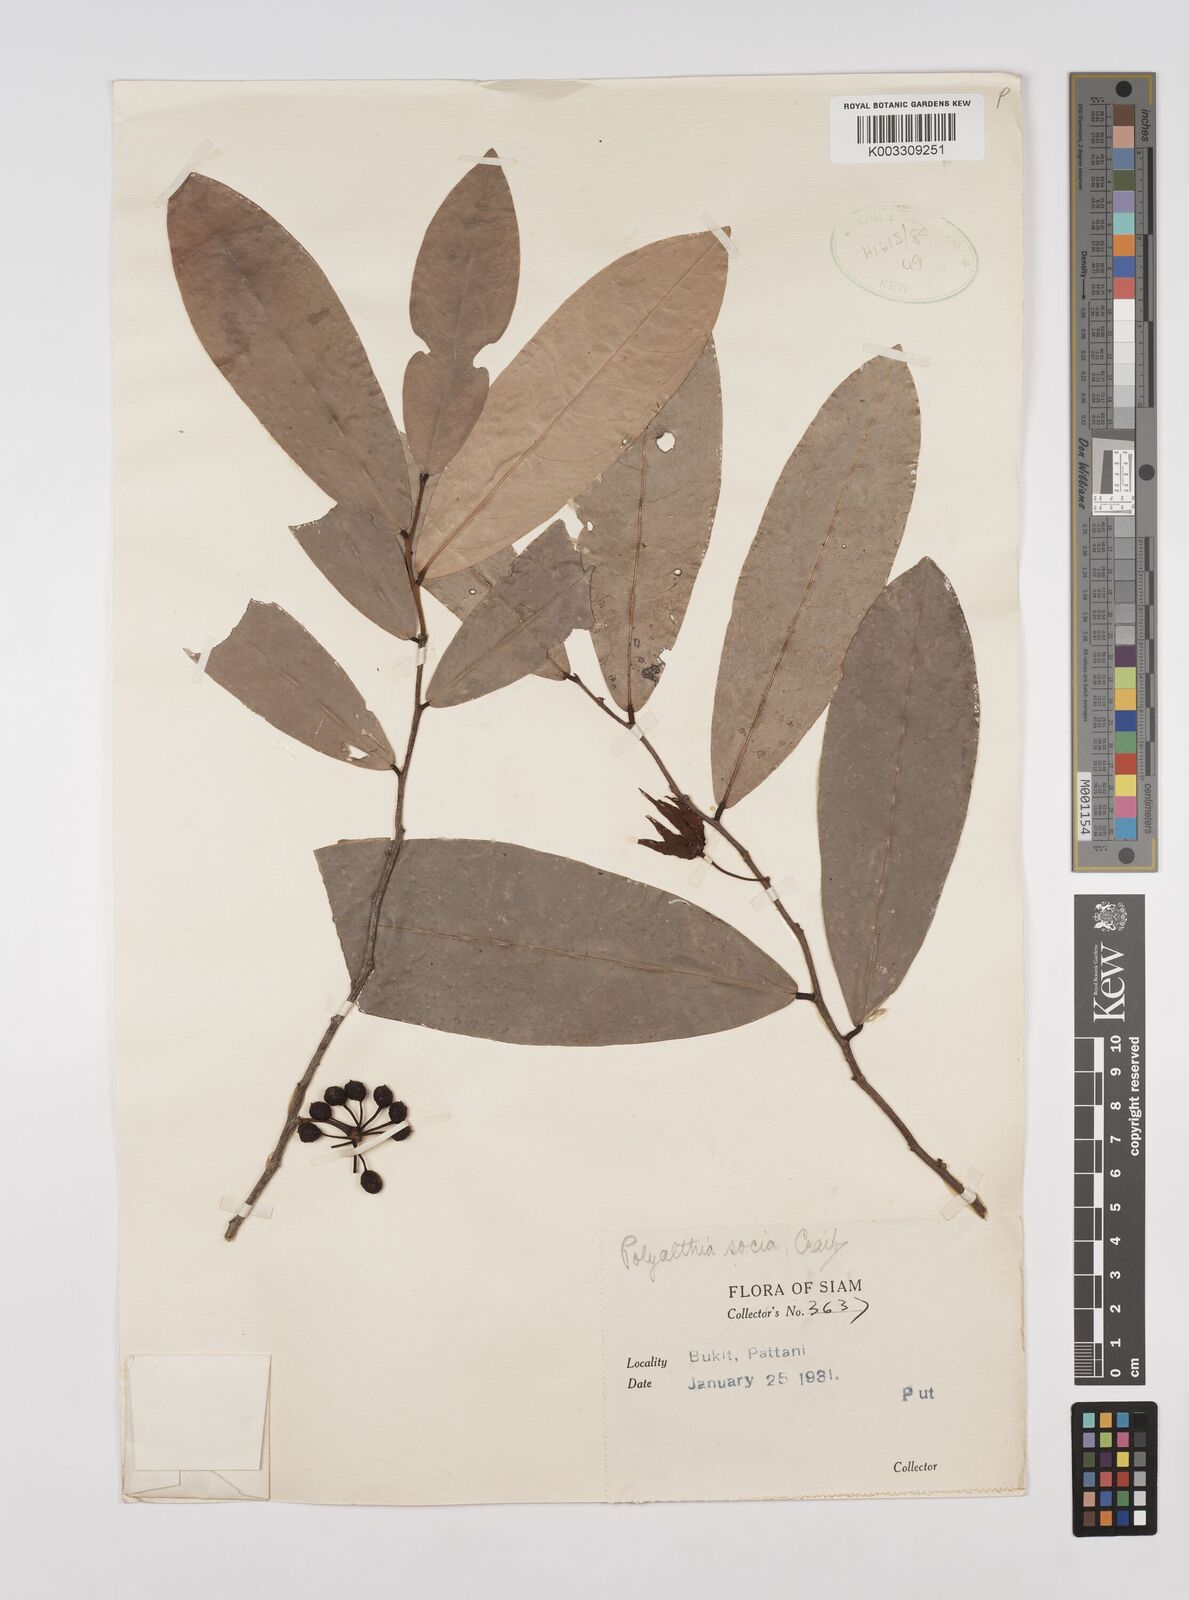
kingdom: Plantae
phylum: Tracheophyta
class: Magnoliopsida
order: Magnoliales
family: Annonaceae
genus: Polyalthia
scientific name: Polyalthia socia
